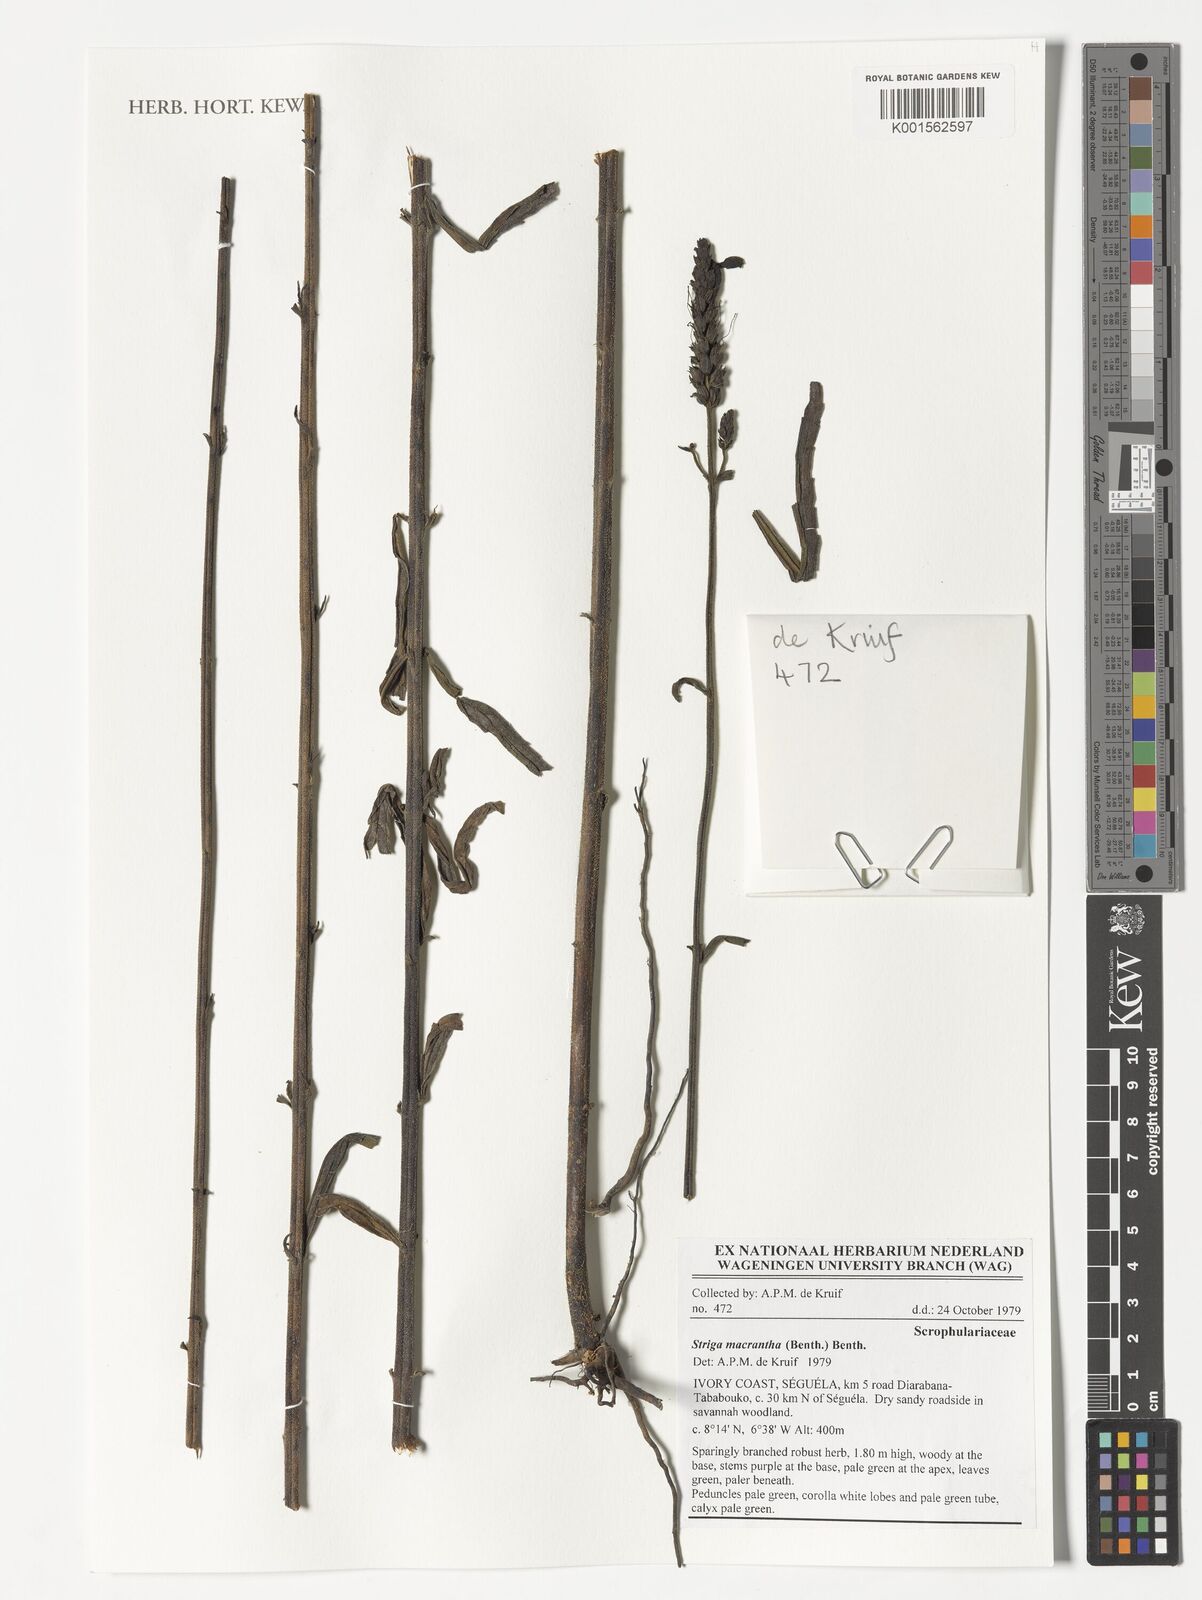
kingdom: Plantae
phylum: Tracheophyta
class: Magnoliopsida
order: Lamiales
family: Orobanchaceae
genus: Striga
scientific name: Striga macrantha
